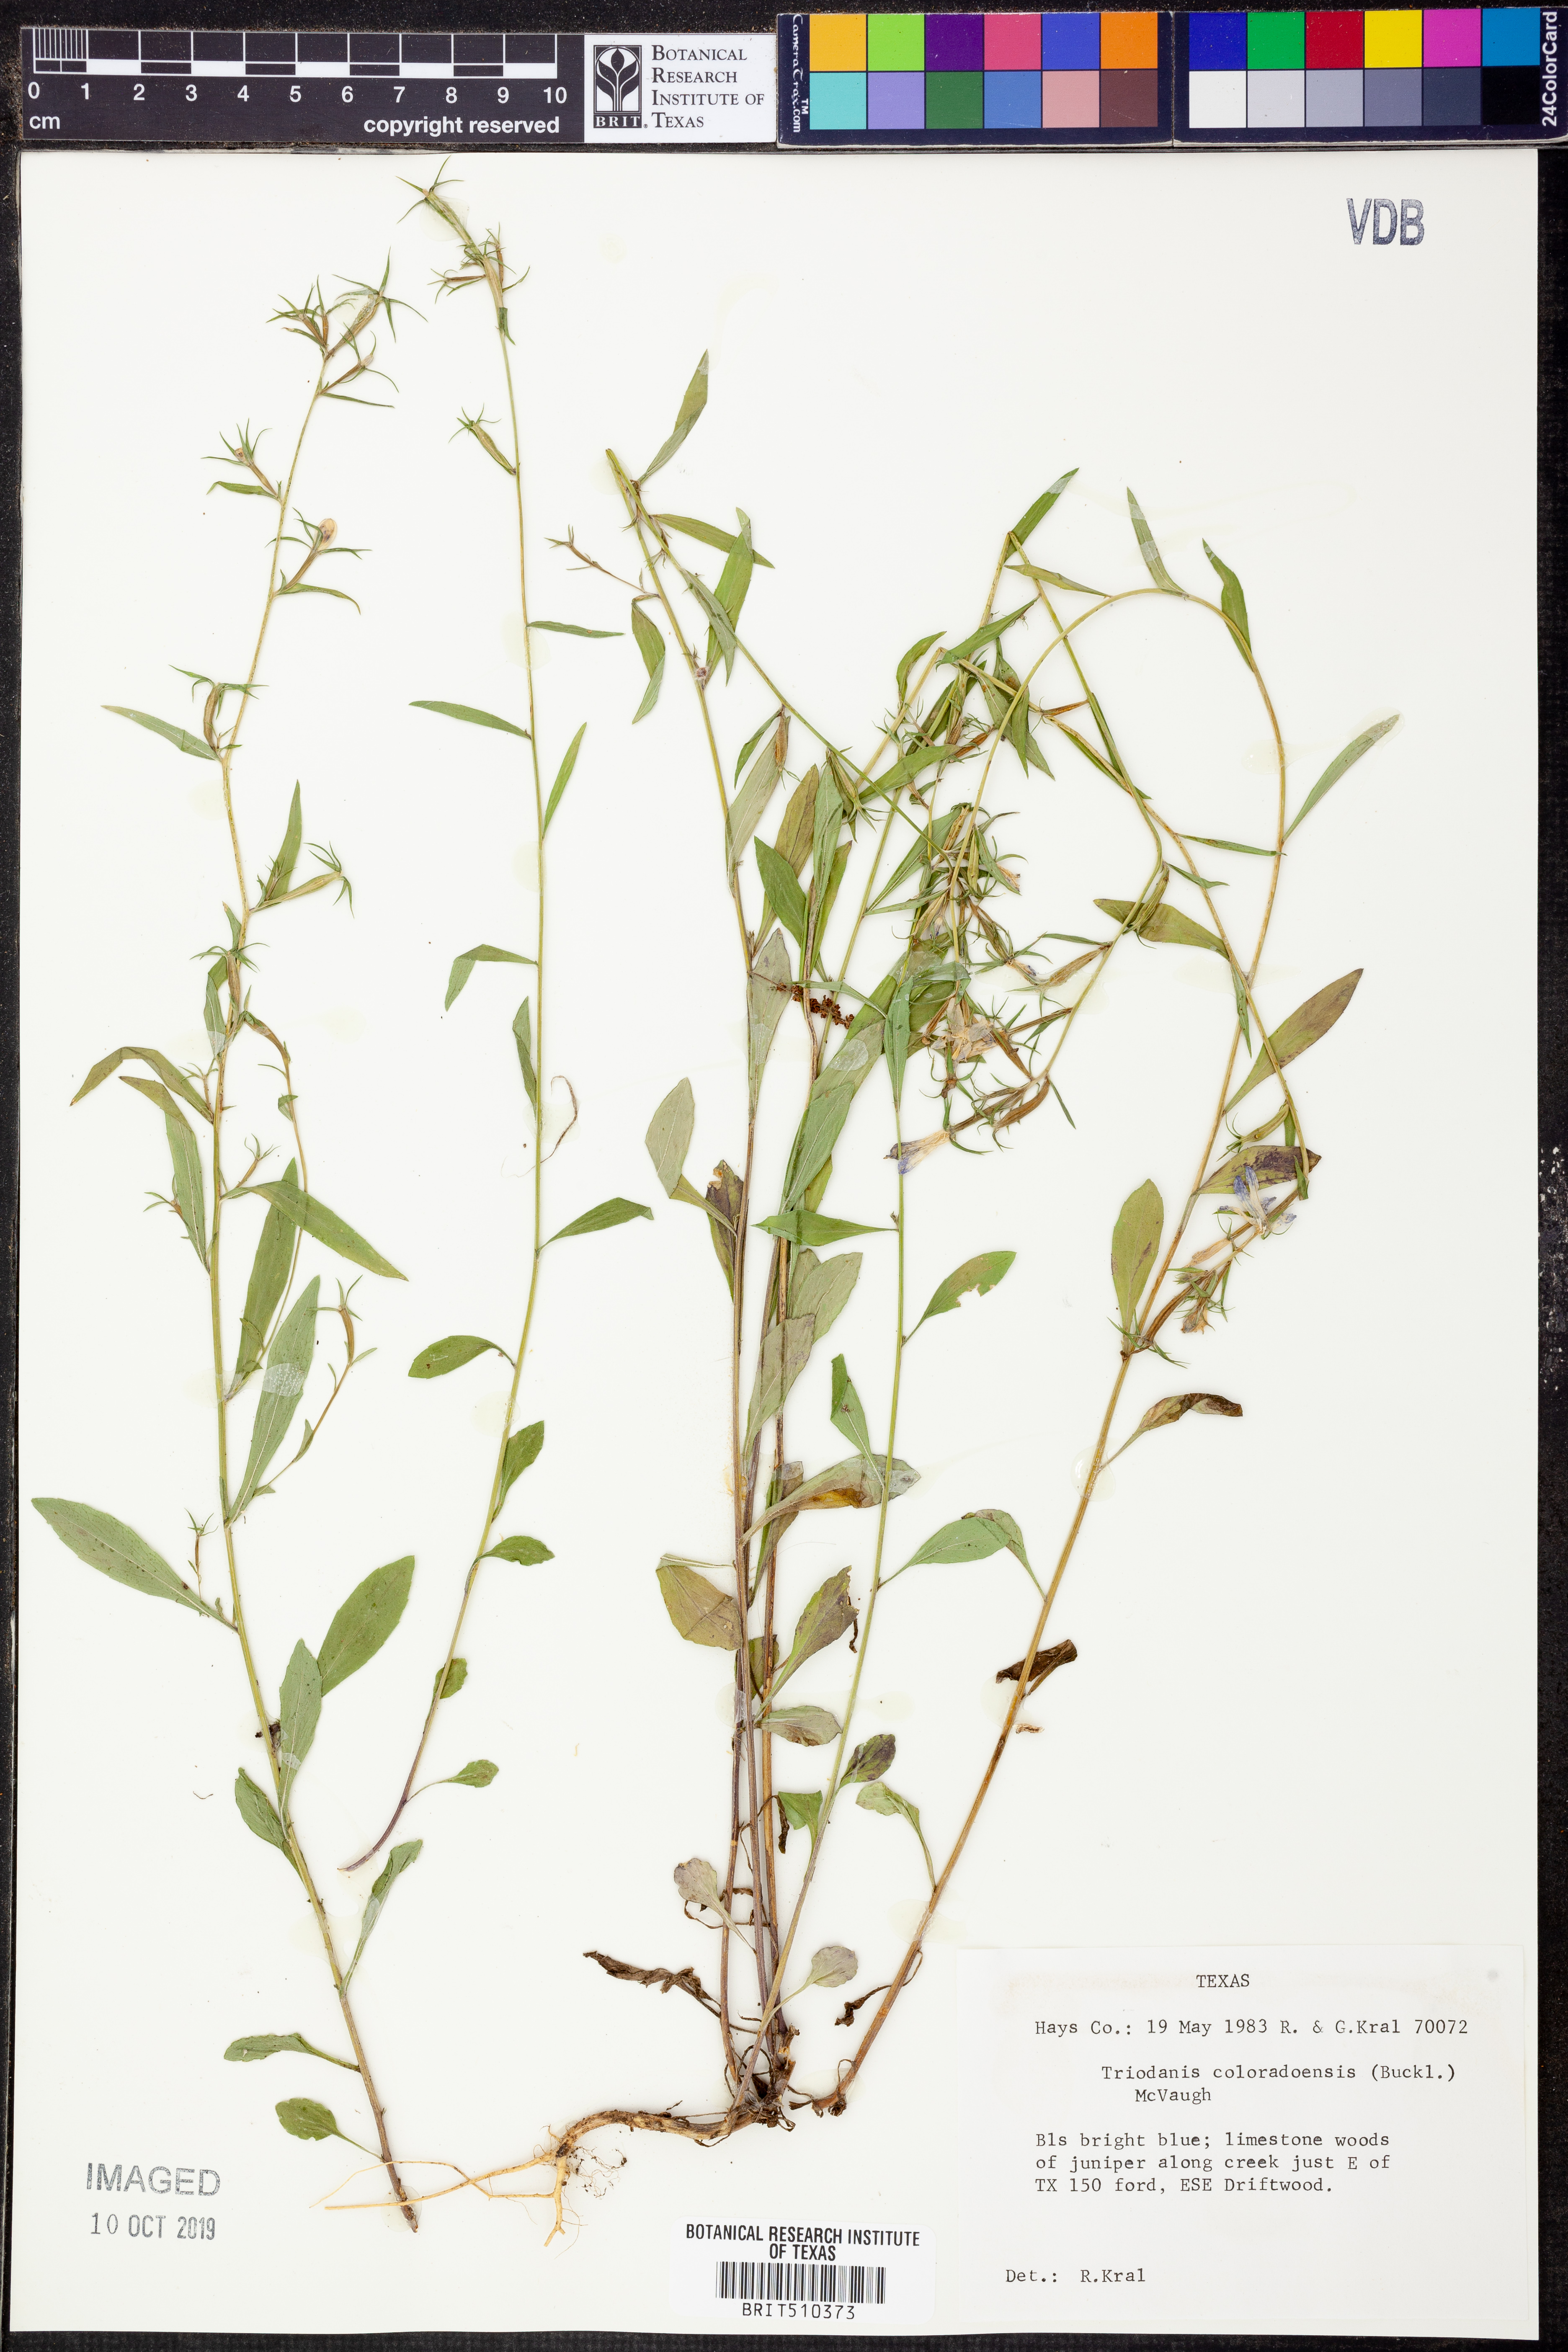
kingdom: Plantae
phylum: Tracheophyta
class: Magnoliopsida
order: Asterales
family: Campanulaceae
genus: Triodanis
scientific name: Triodanis coloradoensis
